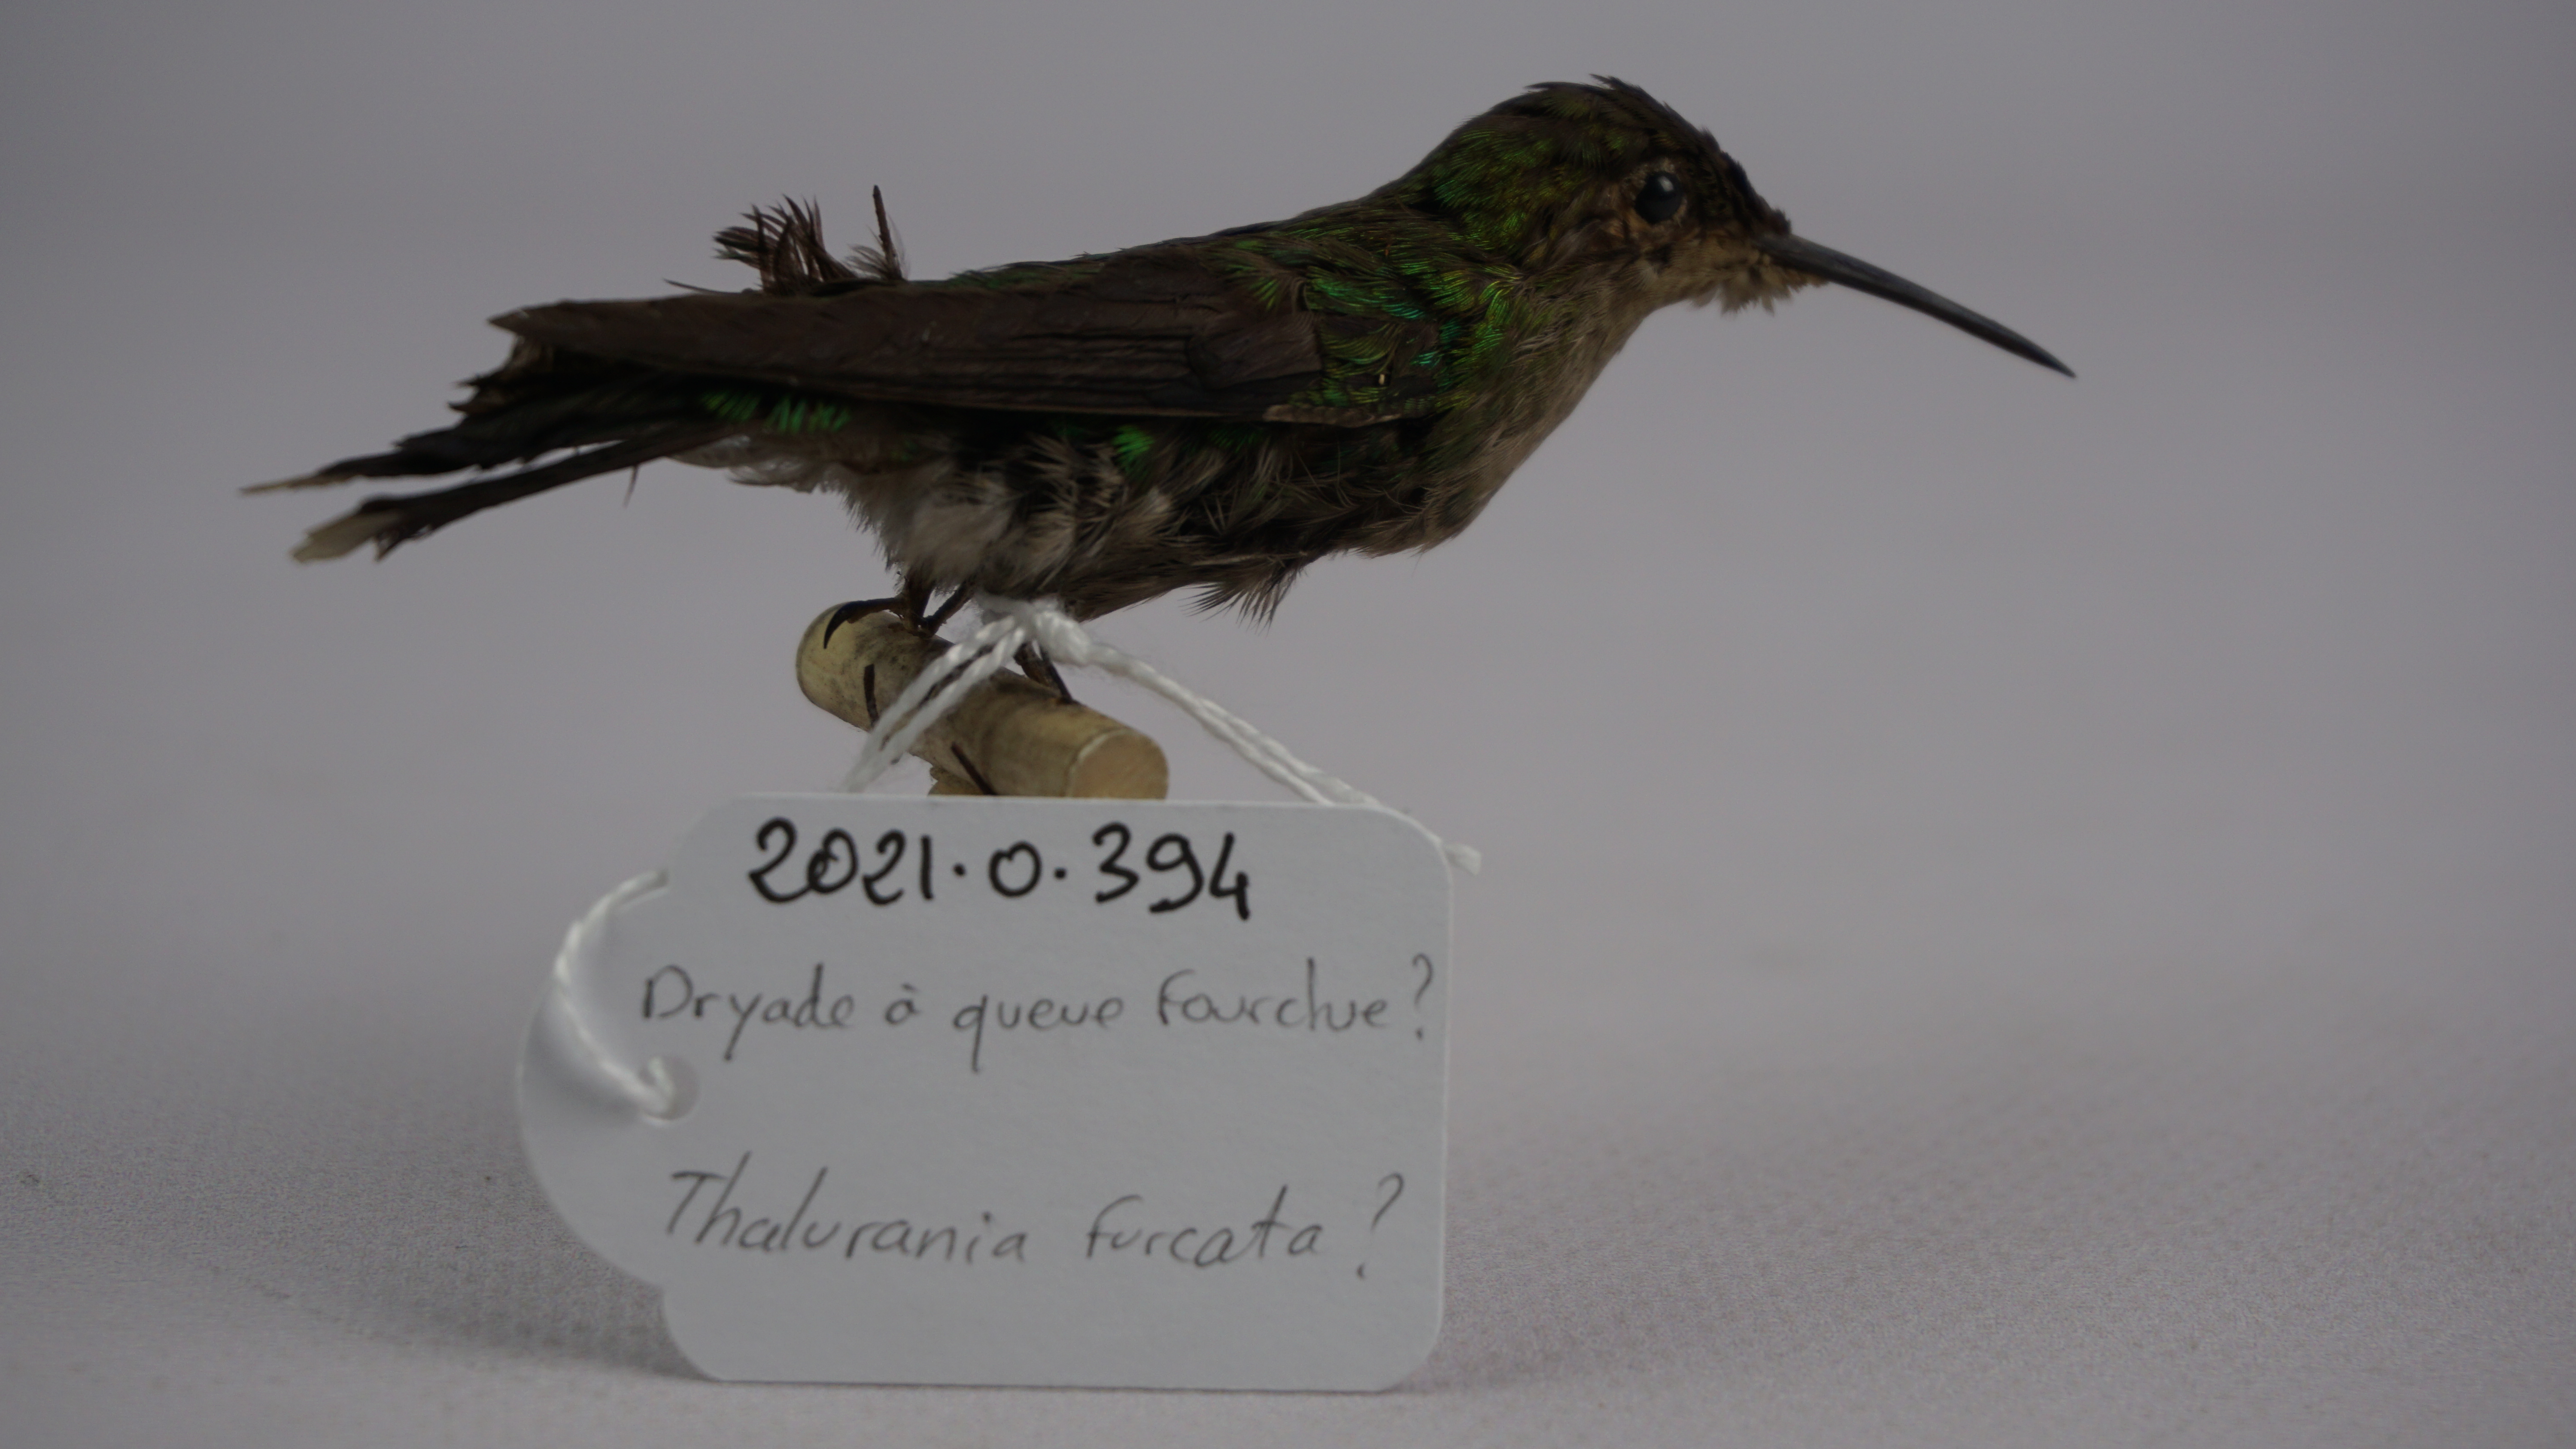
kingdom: Animalia
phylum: Chordata
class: Aves
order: Apodiformes
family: Trochilidae
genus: Thalurania
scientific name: Thalurania furcata
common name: Fork-tailed woodnymph
